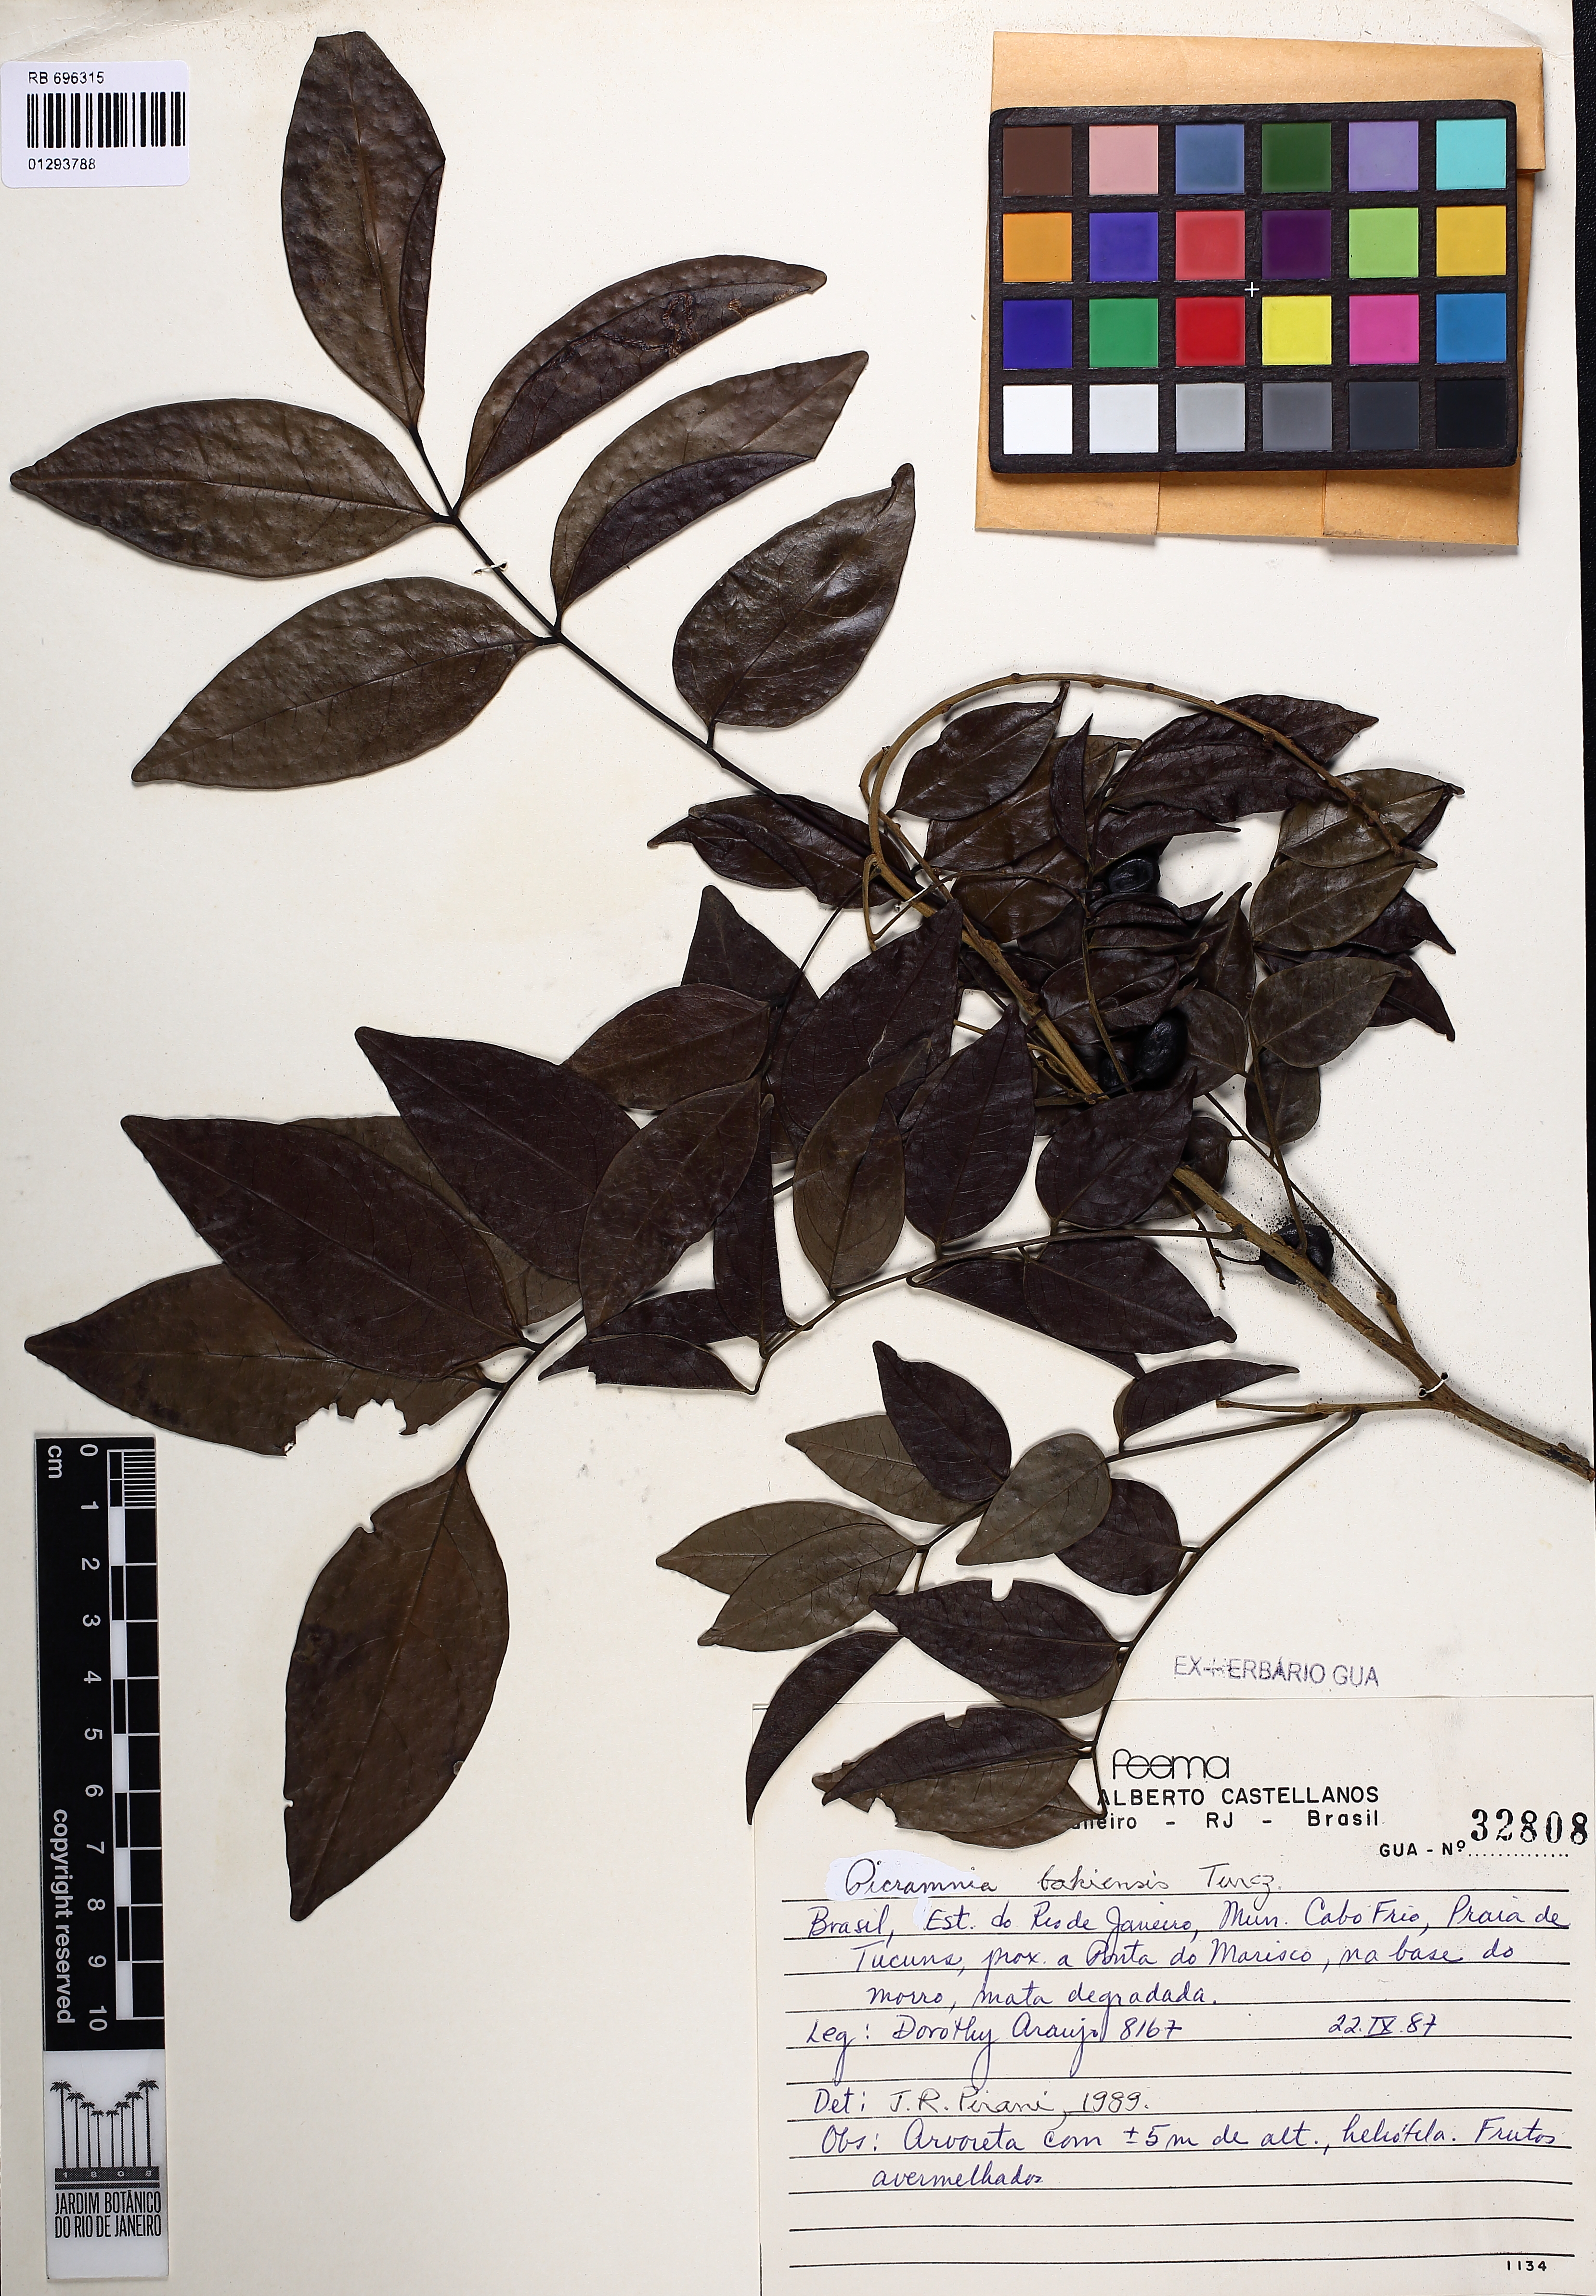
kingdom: Plantae
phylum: Tracheophyta
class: Magnoliopsida
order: Picramniales
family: Picramniaceae
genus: Picramnia
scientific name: Picramnia bahiensis
